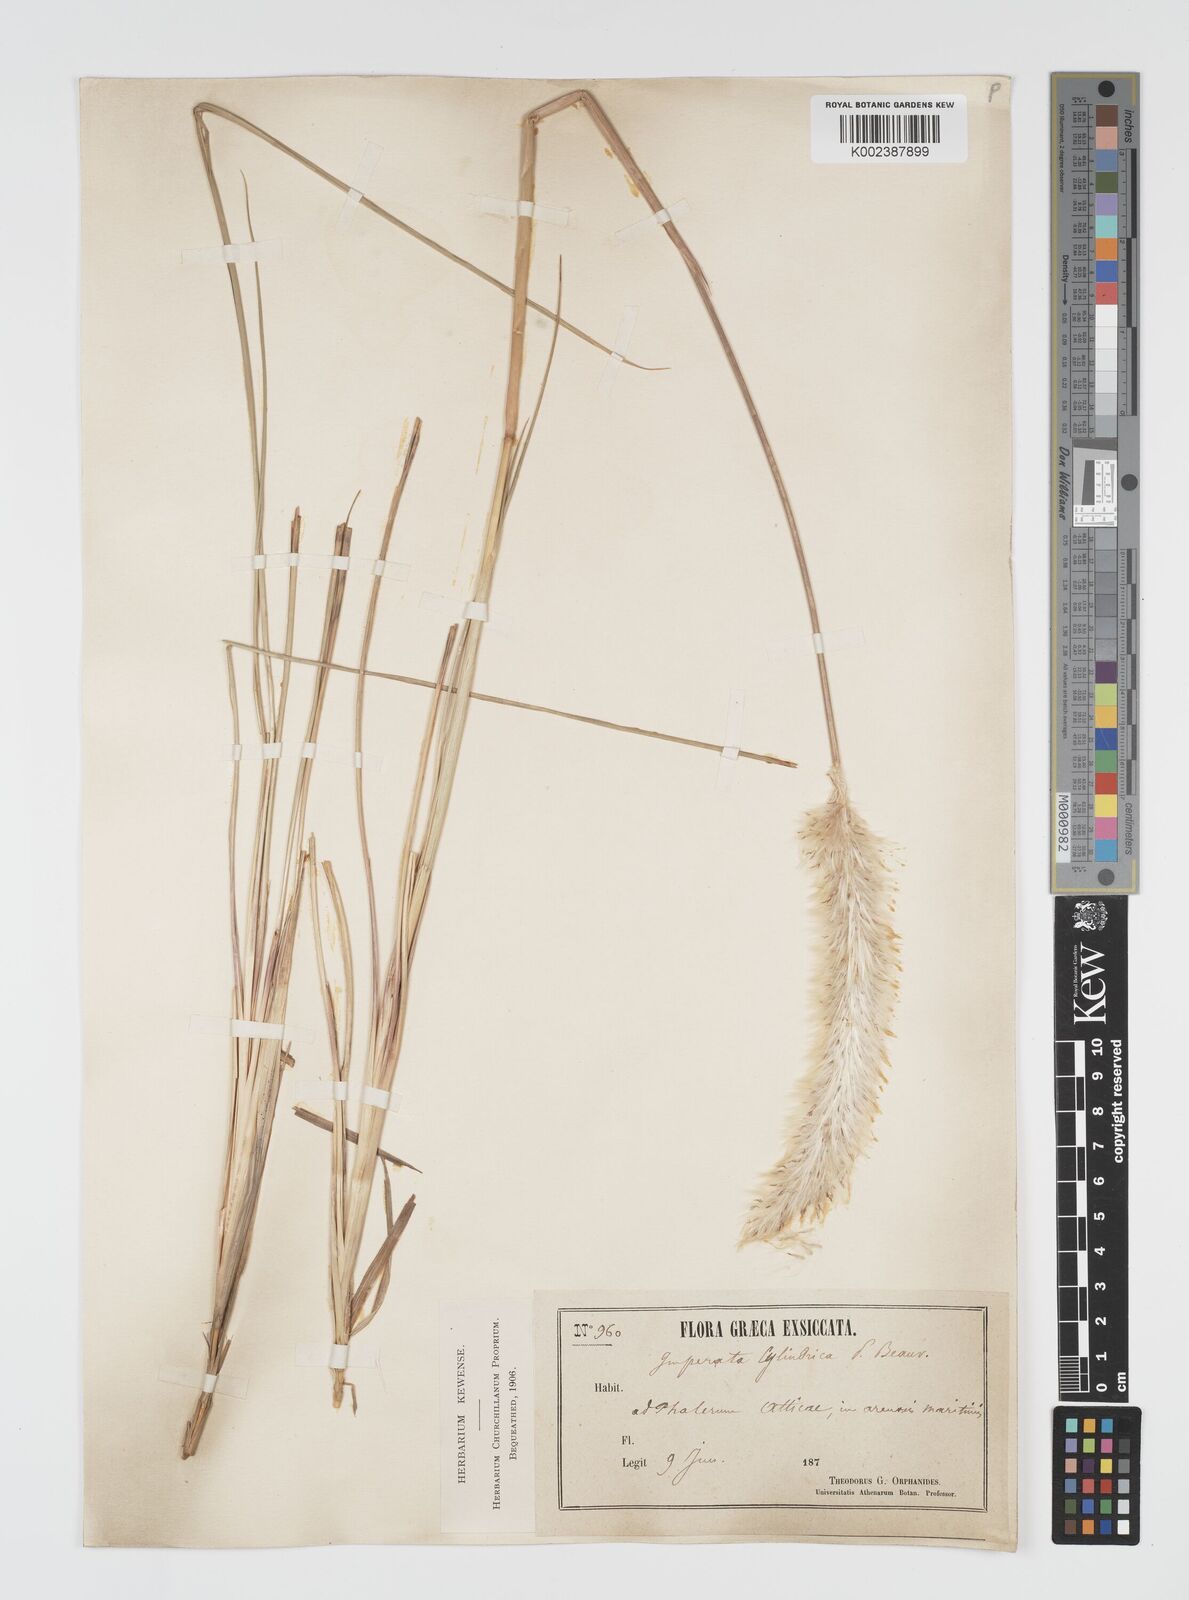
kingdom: Plantae
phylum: Tracheophyta
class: Liliopsida
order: Poales
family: Poaceae
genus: Imperata
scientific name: Imperata cylindrica
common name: Cogongrass
